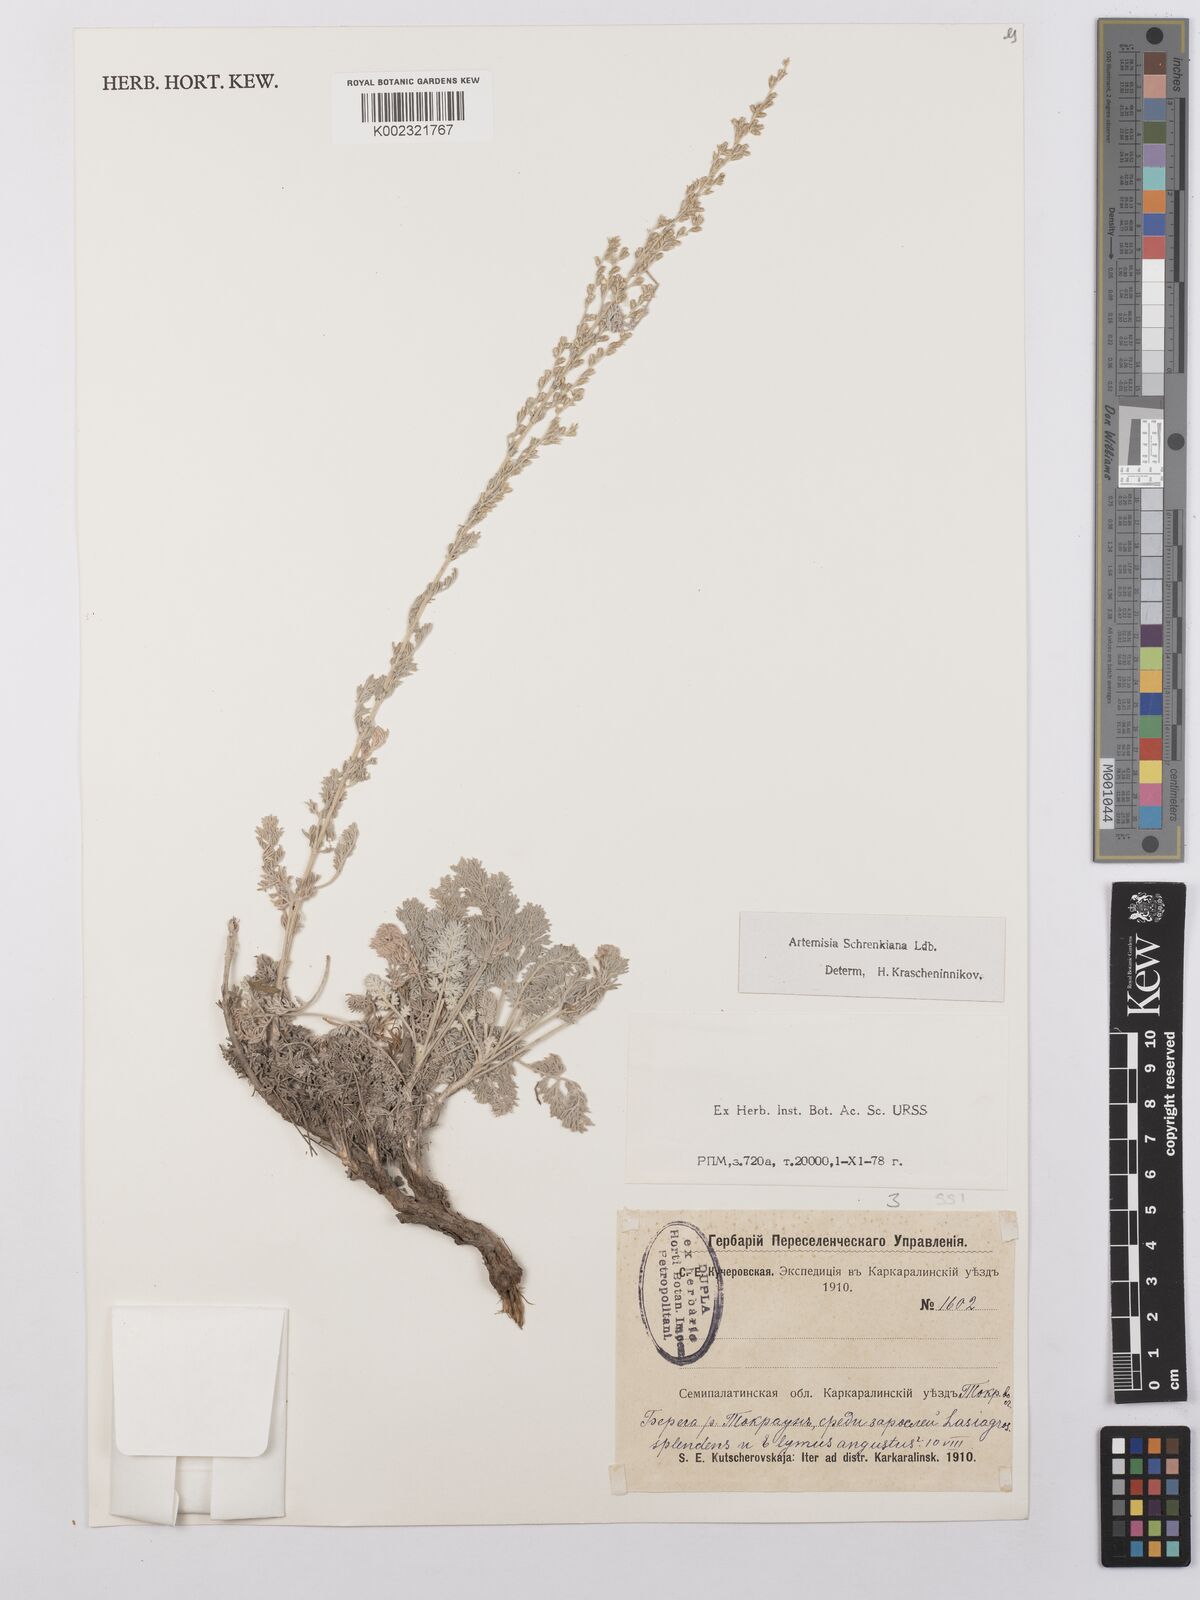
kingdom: Plantae
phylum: Tracheophyta
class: Magnoliopsida
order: Asterales
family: Asteraceae
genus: Artemisia
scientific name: Artemisia schrenkiana
